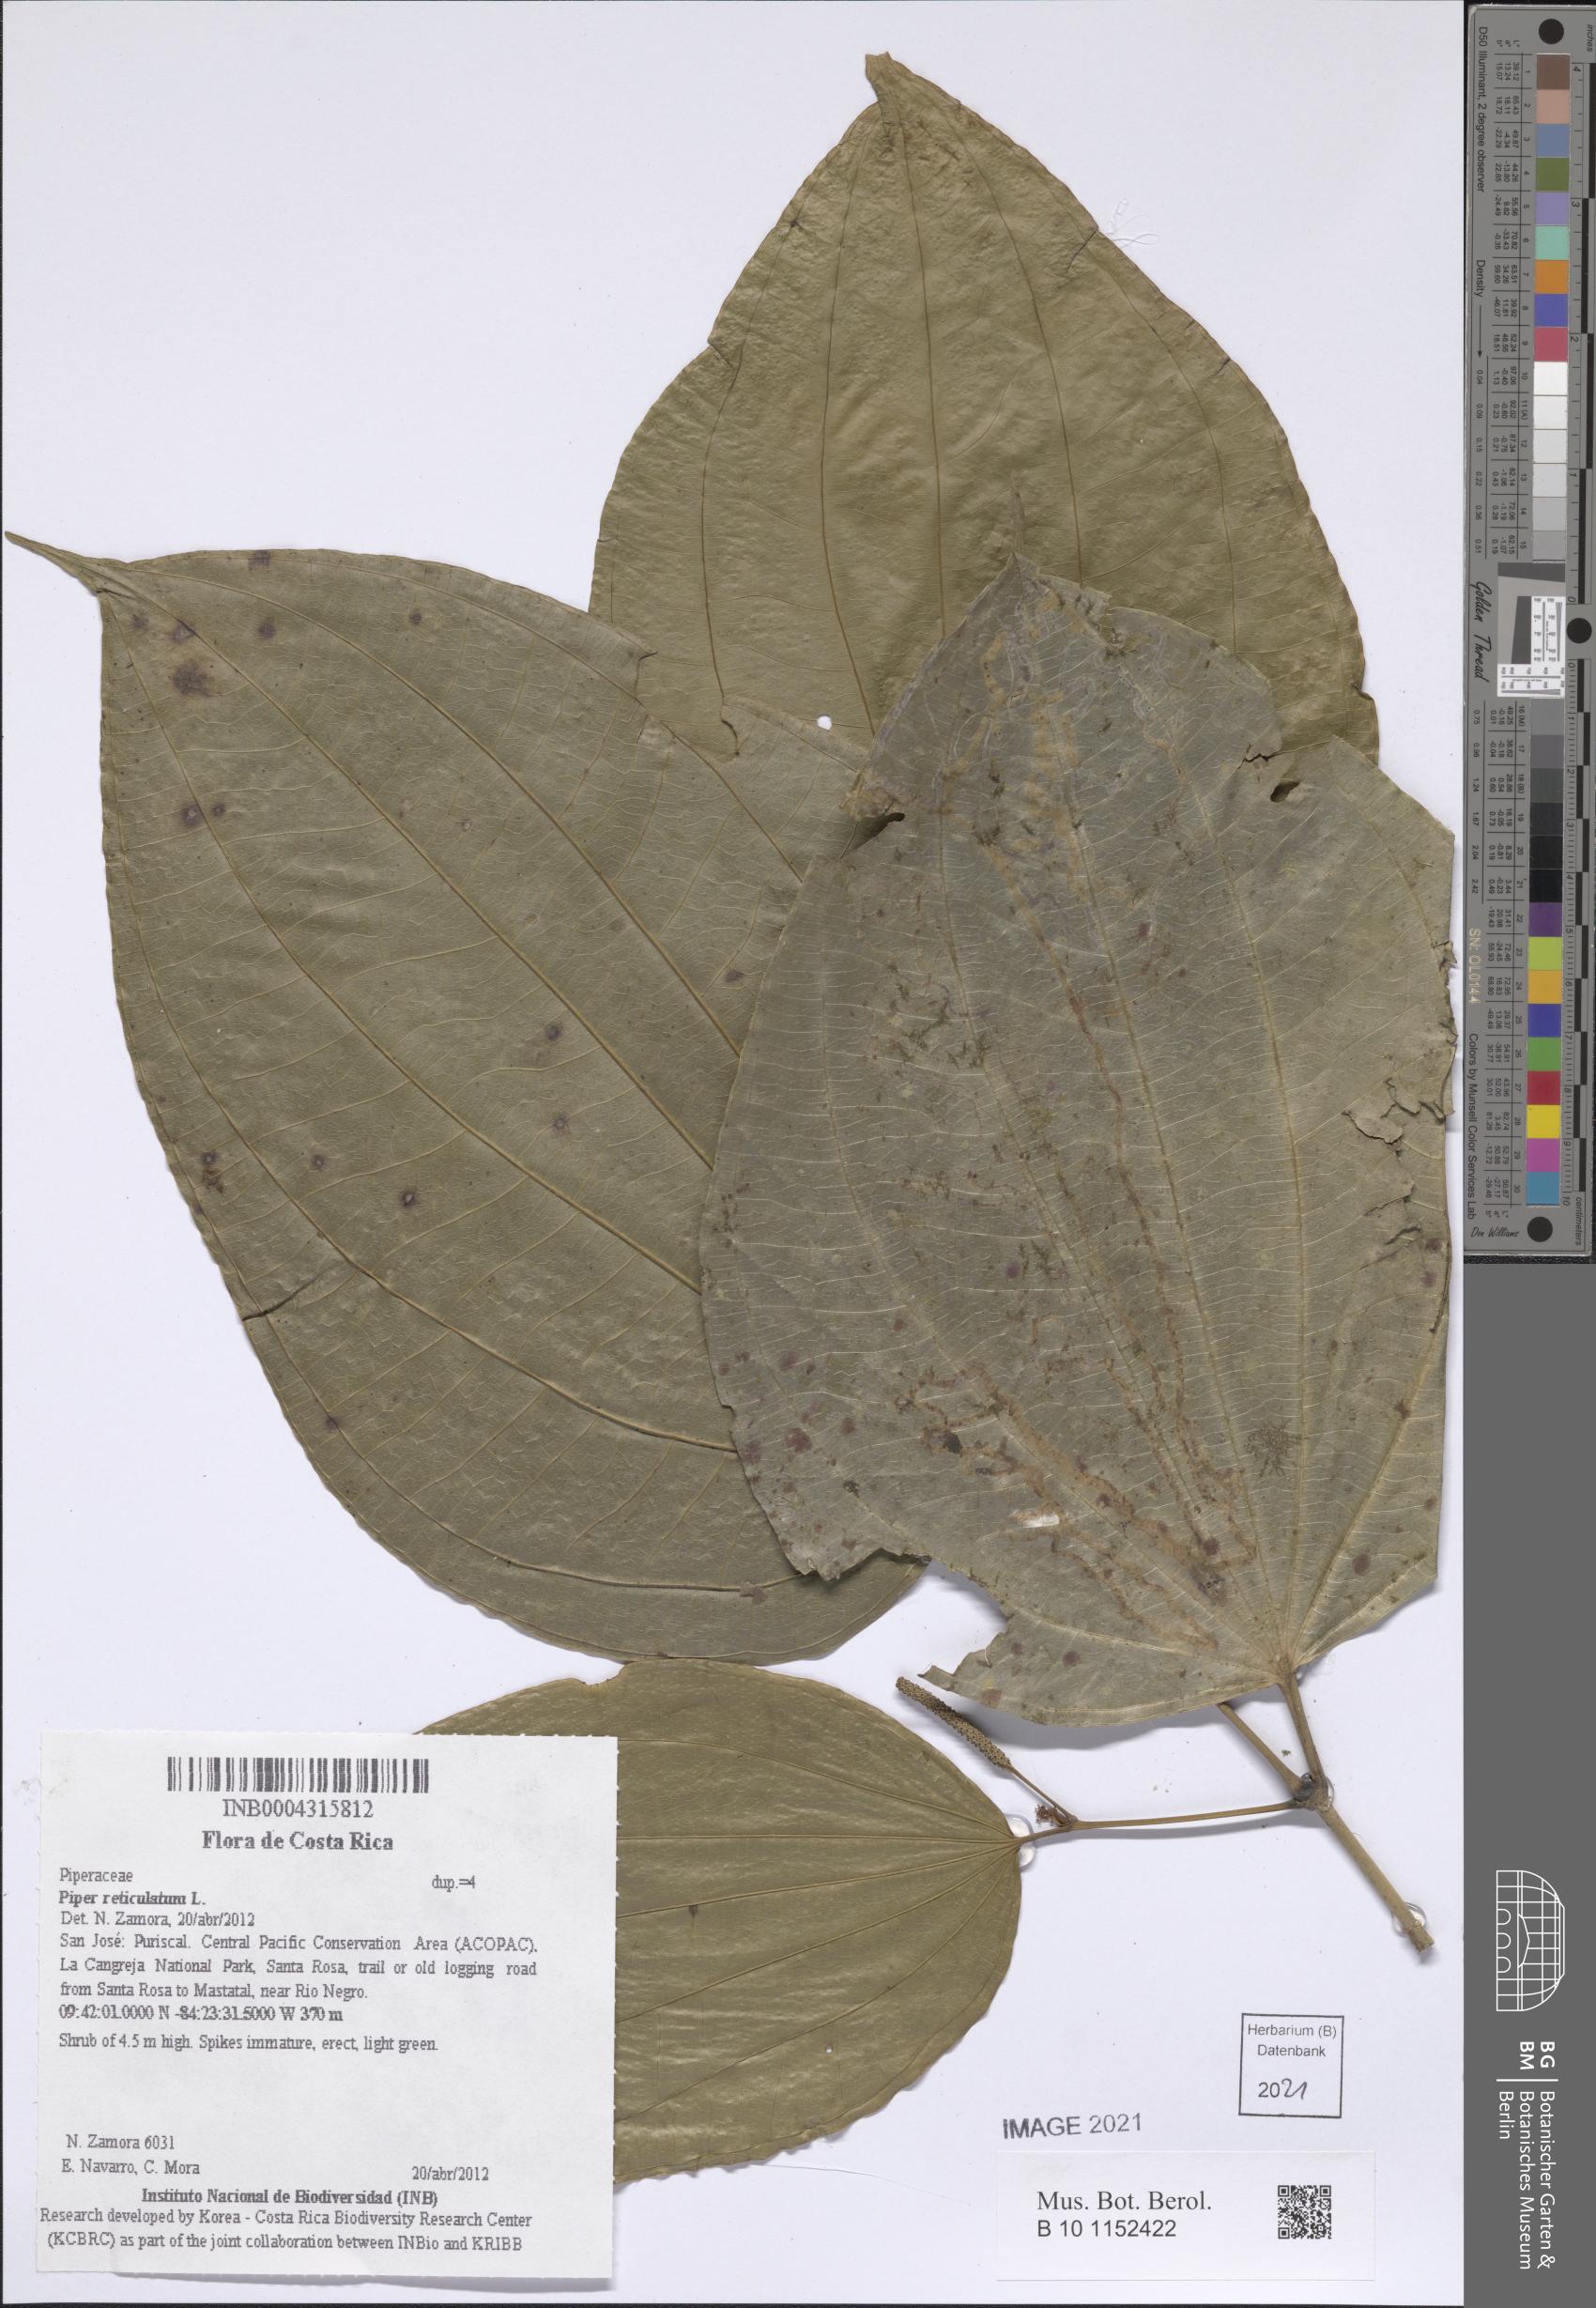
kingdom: Plantae
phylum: Tracheophyta
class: Magnoliopsida
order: Piperales
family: Piperaceae
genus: Piper
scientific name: Piper reticulatum
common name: Wild cane
